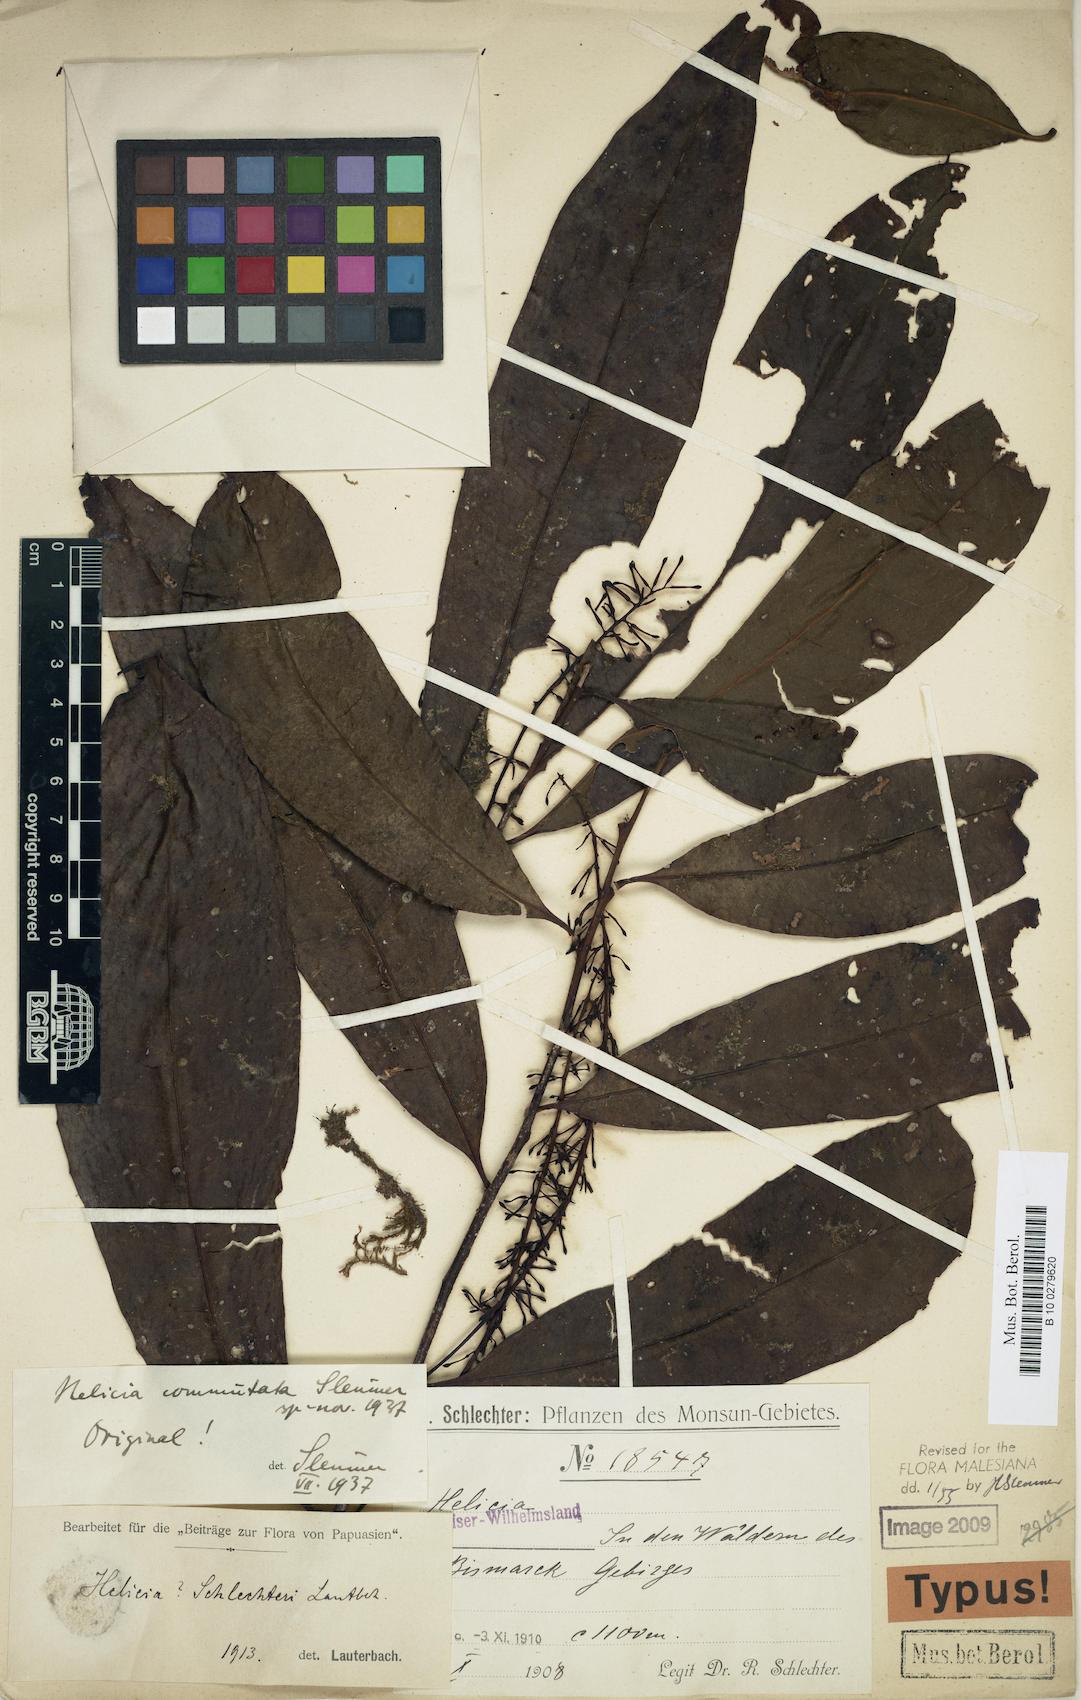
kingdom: Plantae
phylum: Tracheophyta
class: Magnoliopsida
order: Proteales
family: Proteaceae
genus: Helicia
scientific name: Helicia commutata
